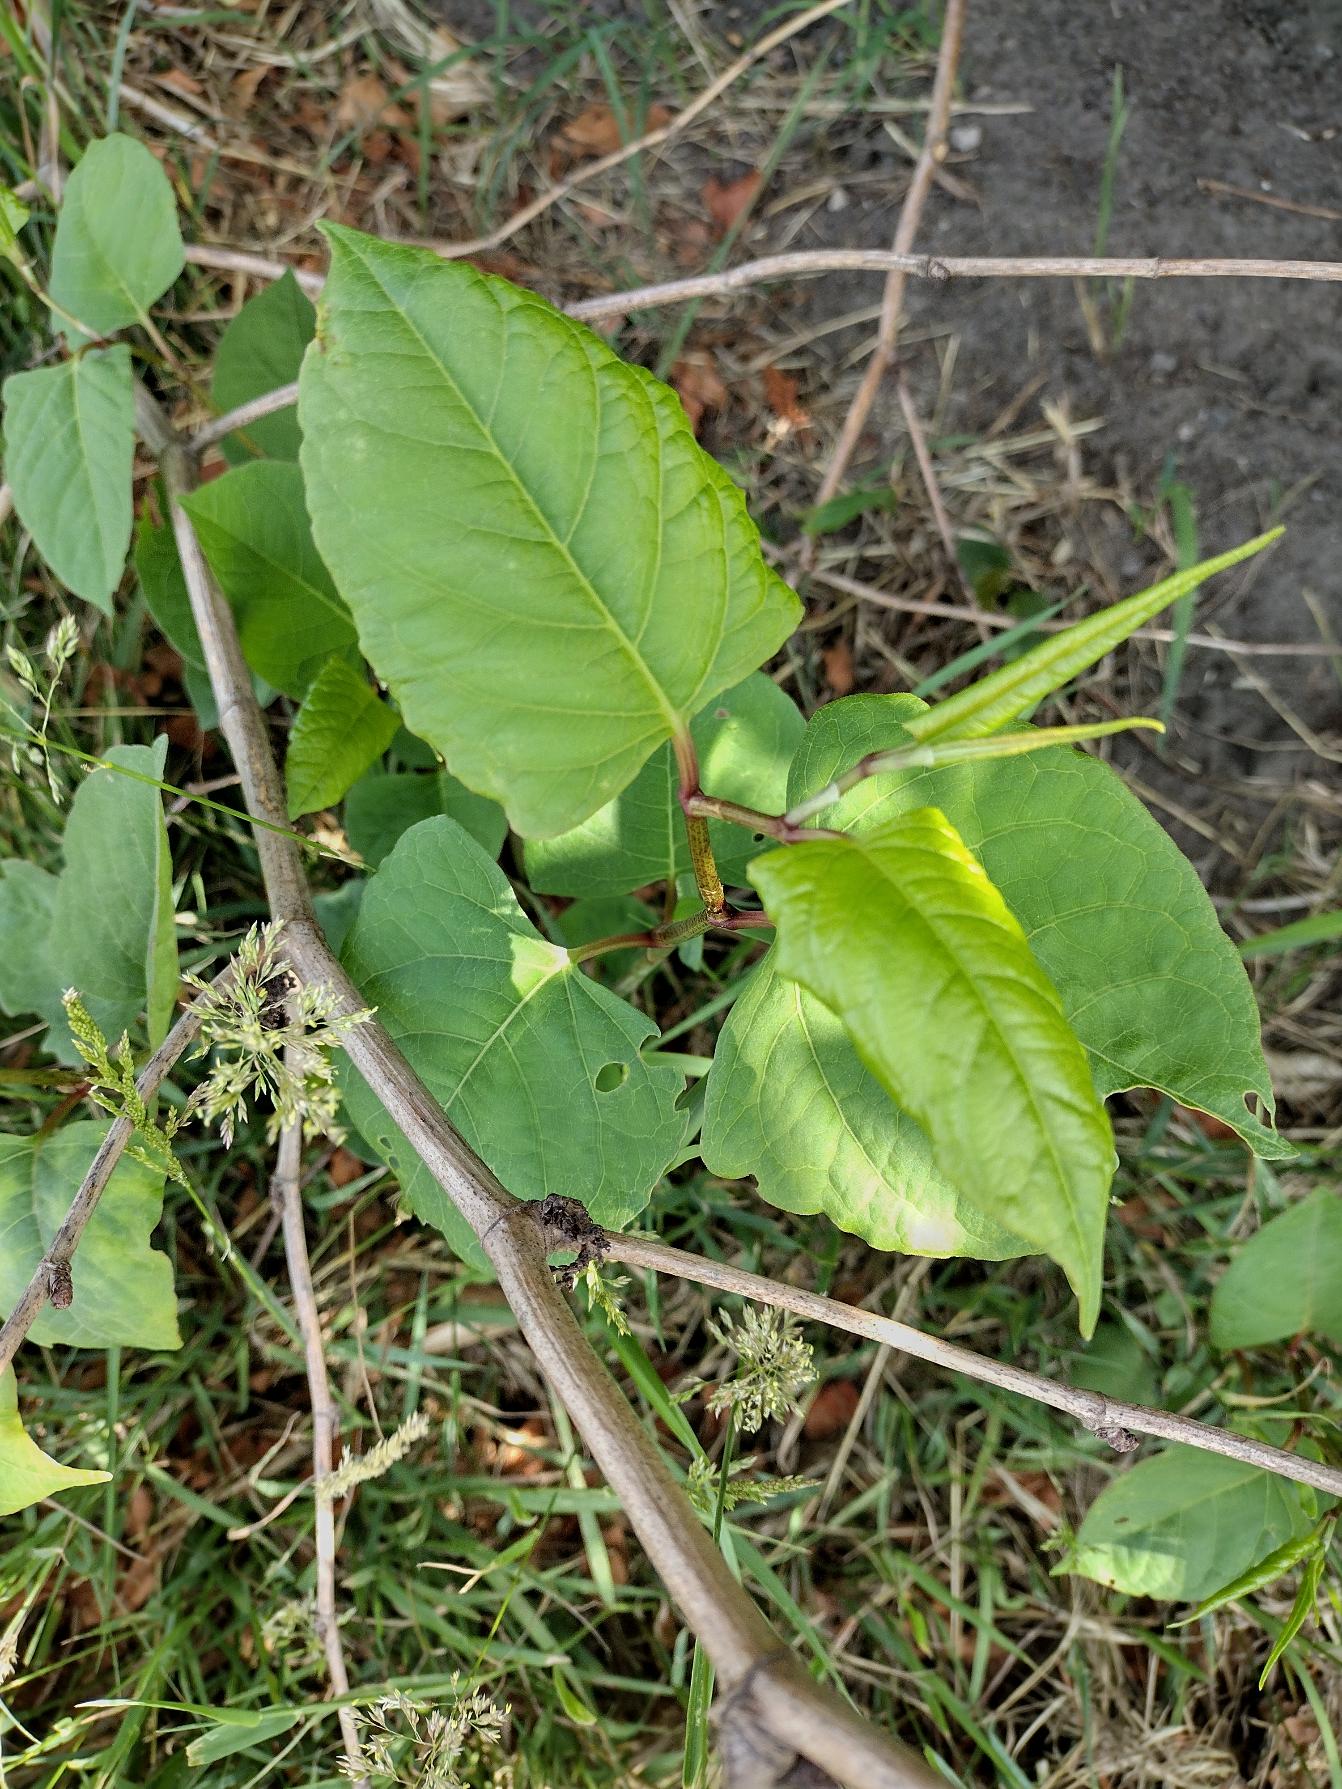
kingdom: Plantae
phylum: Tracheophyta
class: Magnoliopsida
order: Caryophyllales
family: Polygonaceae
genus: Reynoutria
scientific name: Reynoutria japonica
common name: Japan-pileurt
